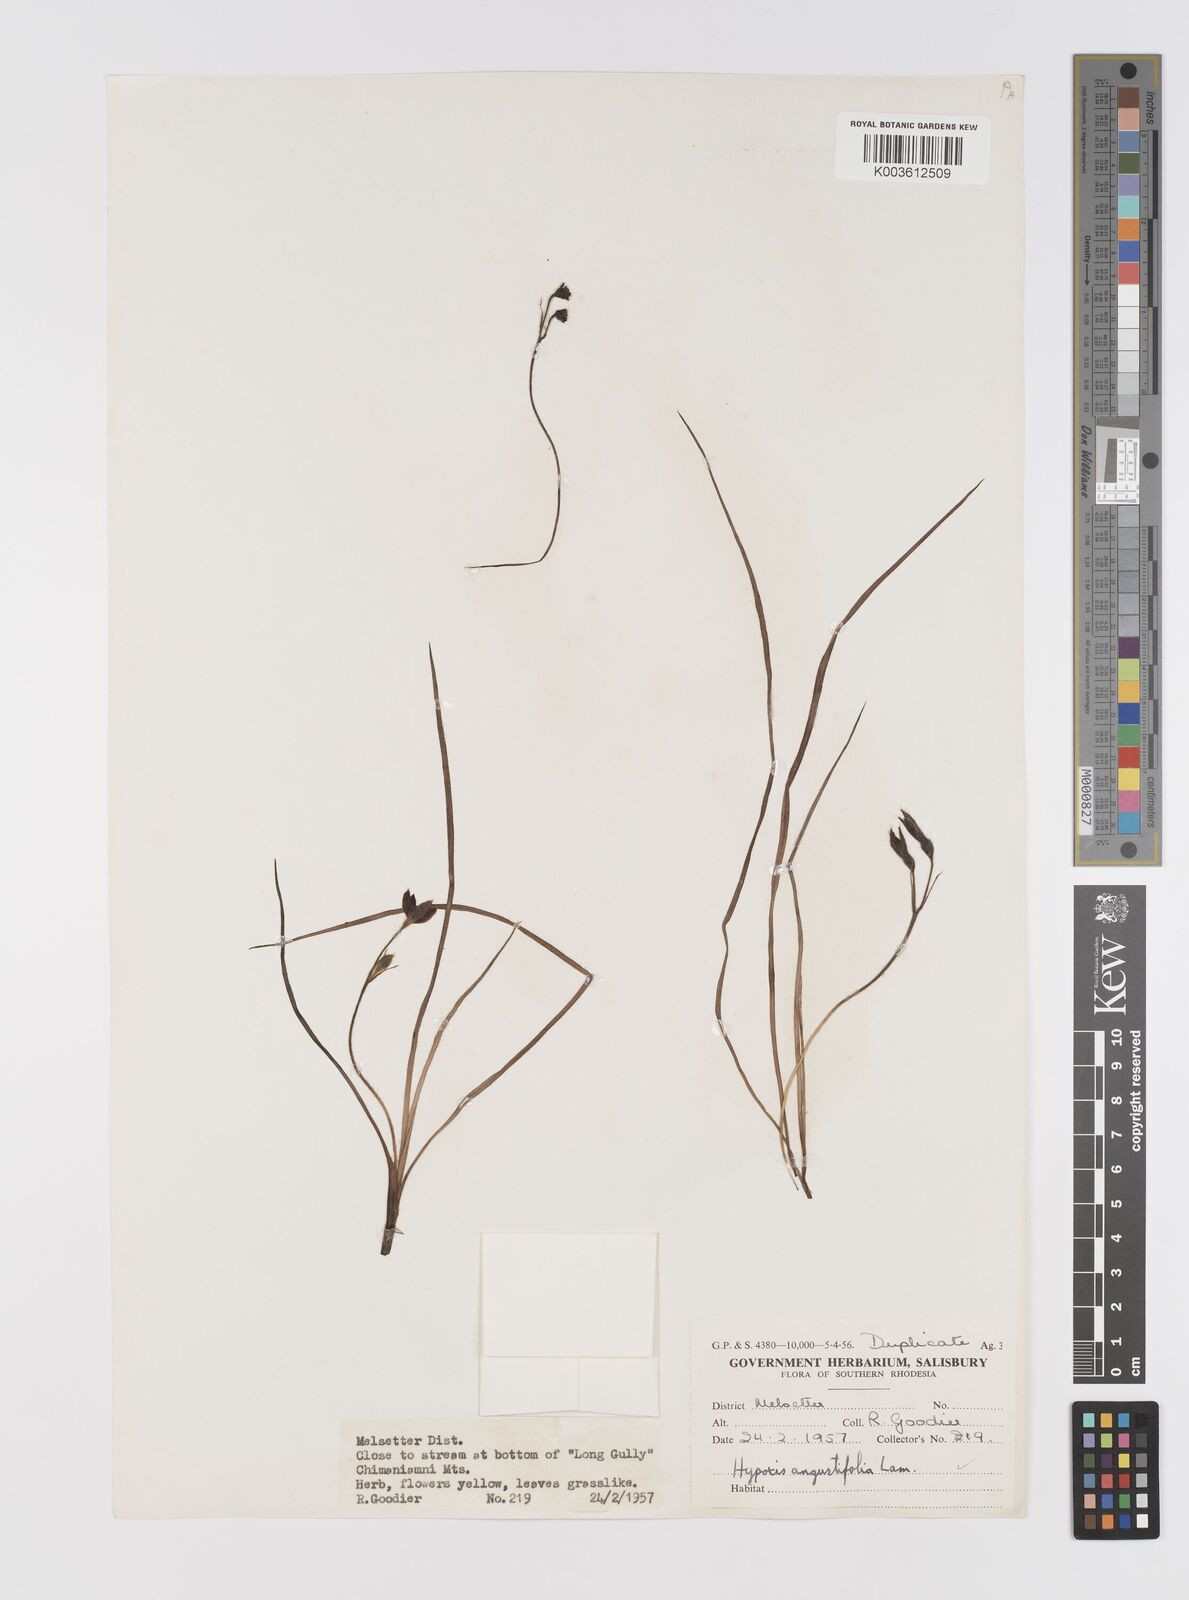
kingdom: Plantae
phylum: Tracheophyta
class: Liliopsida
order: Asparagales
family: Hypoxidaceae
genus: Hypoxis
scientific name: Hypoxis nyasica
